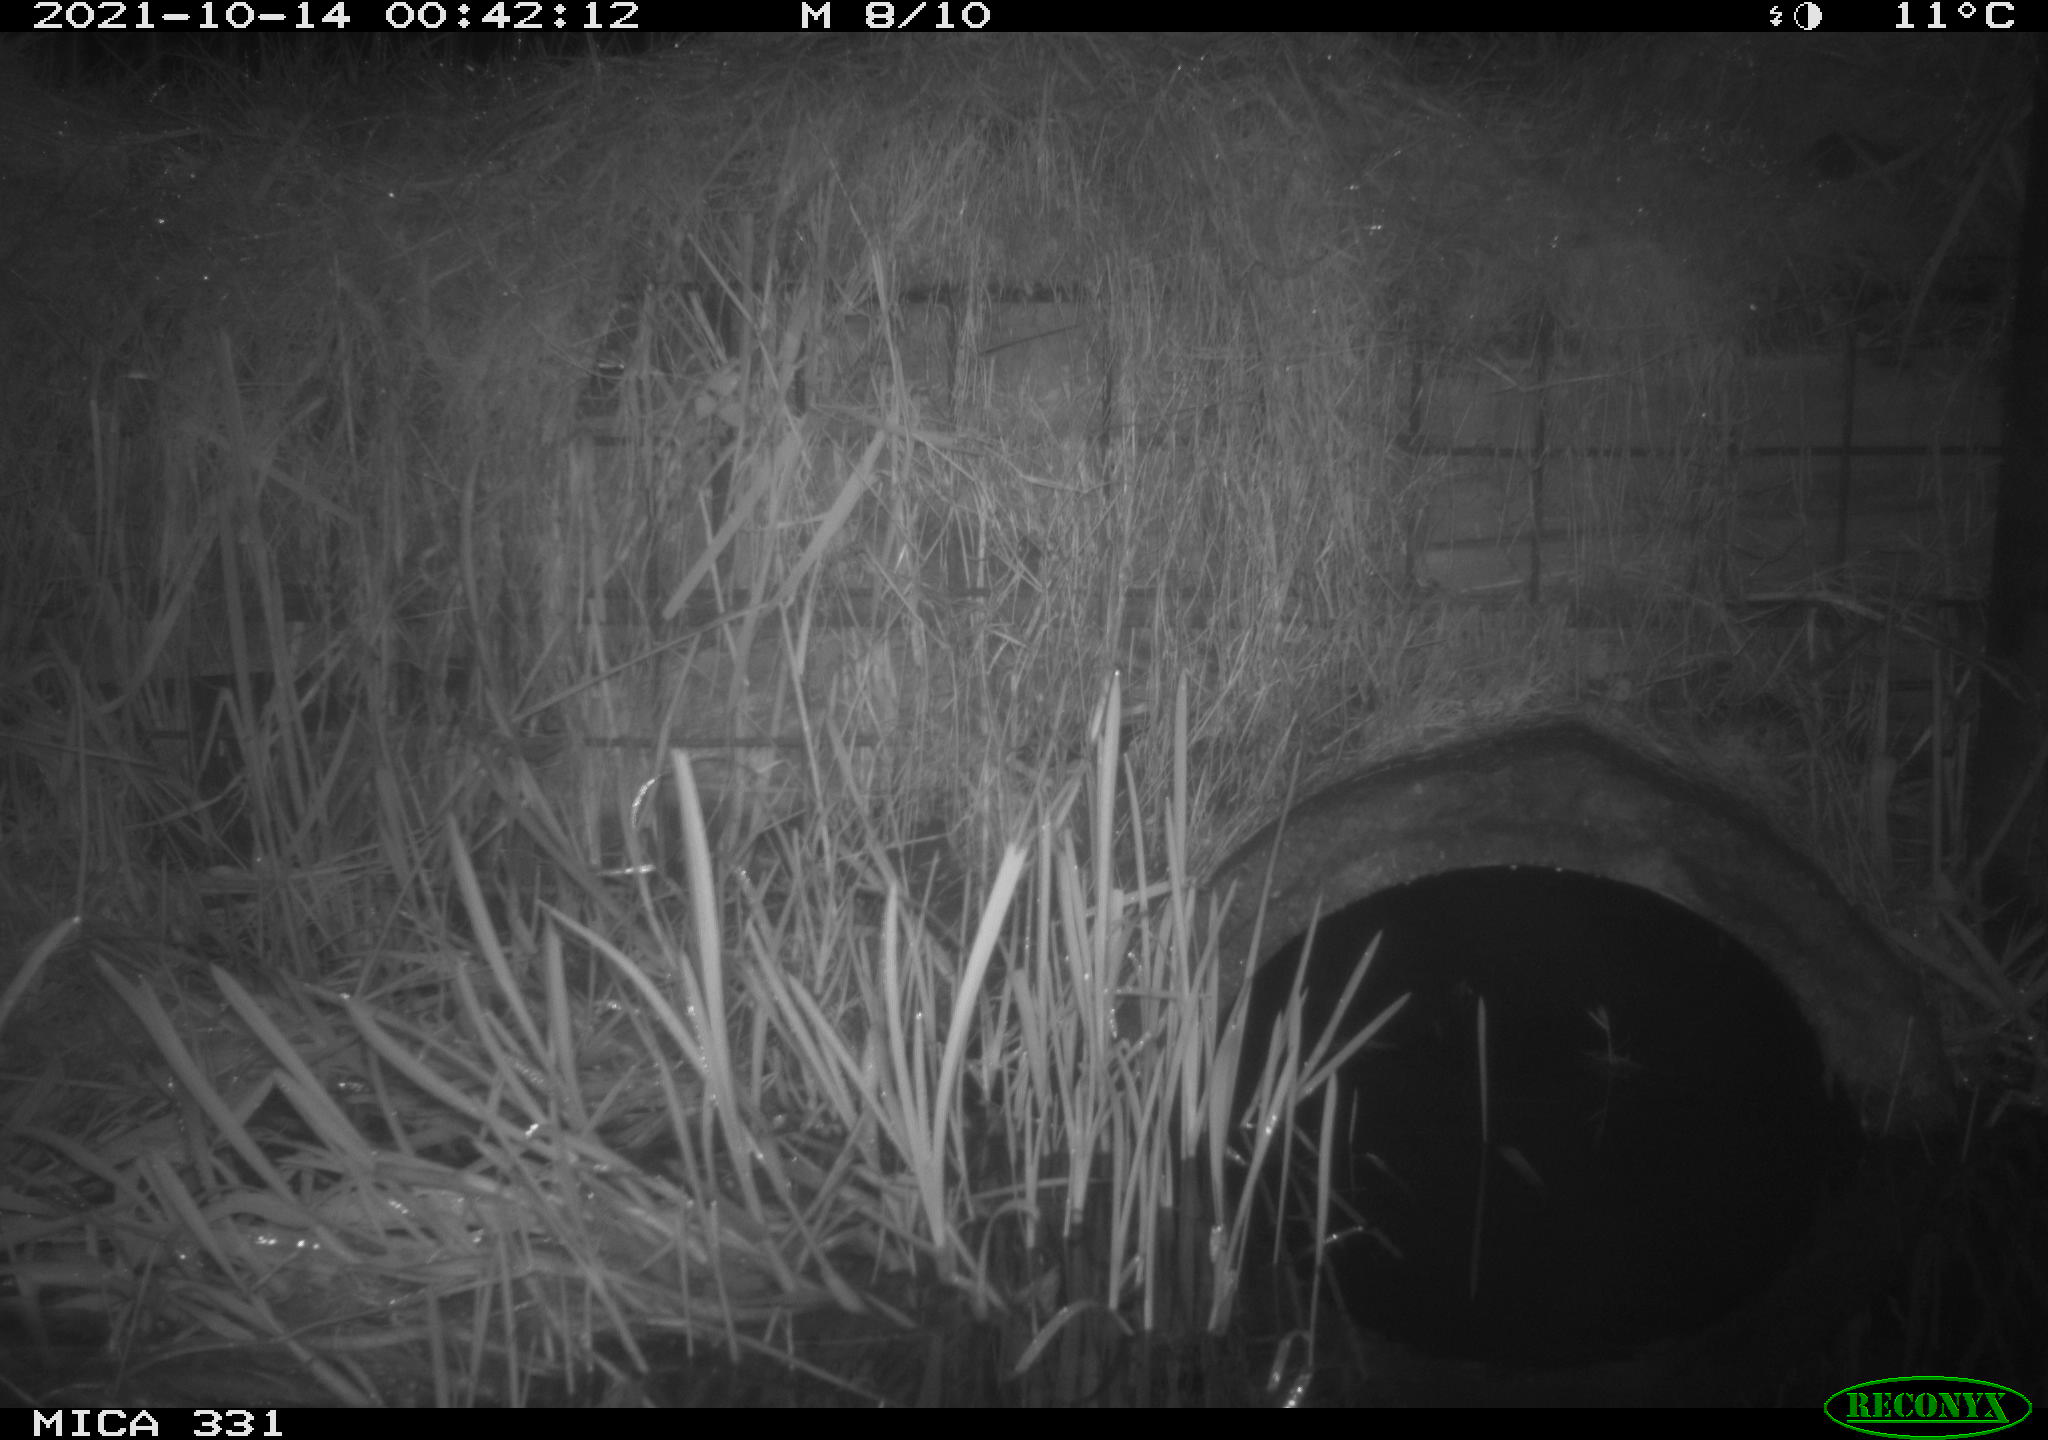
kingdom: Animalia
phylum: Chordata
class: Mammalia
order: Rodentia
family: Muridae
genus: Rattus
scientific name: Rattus norvegicus
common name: Brown rat
